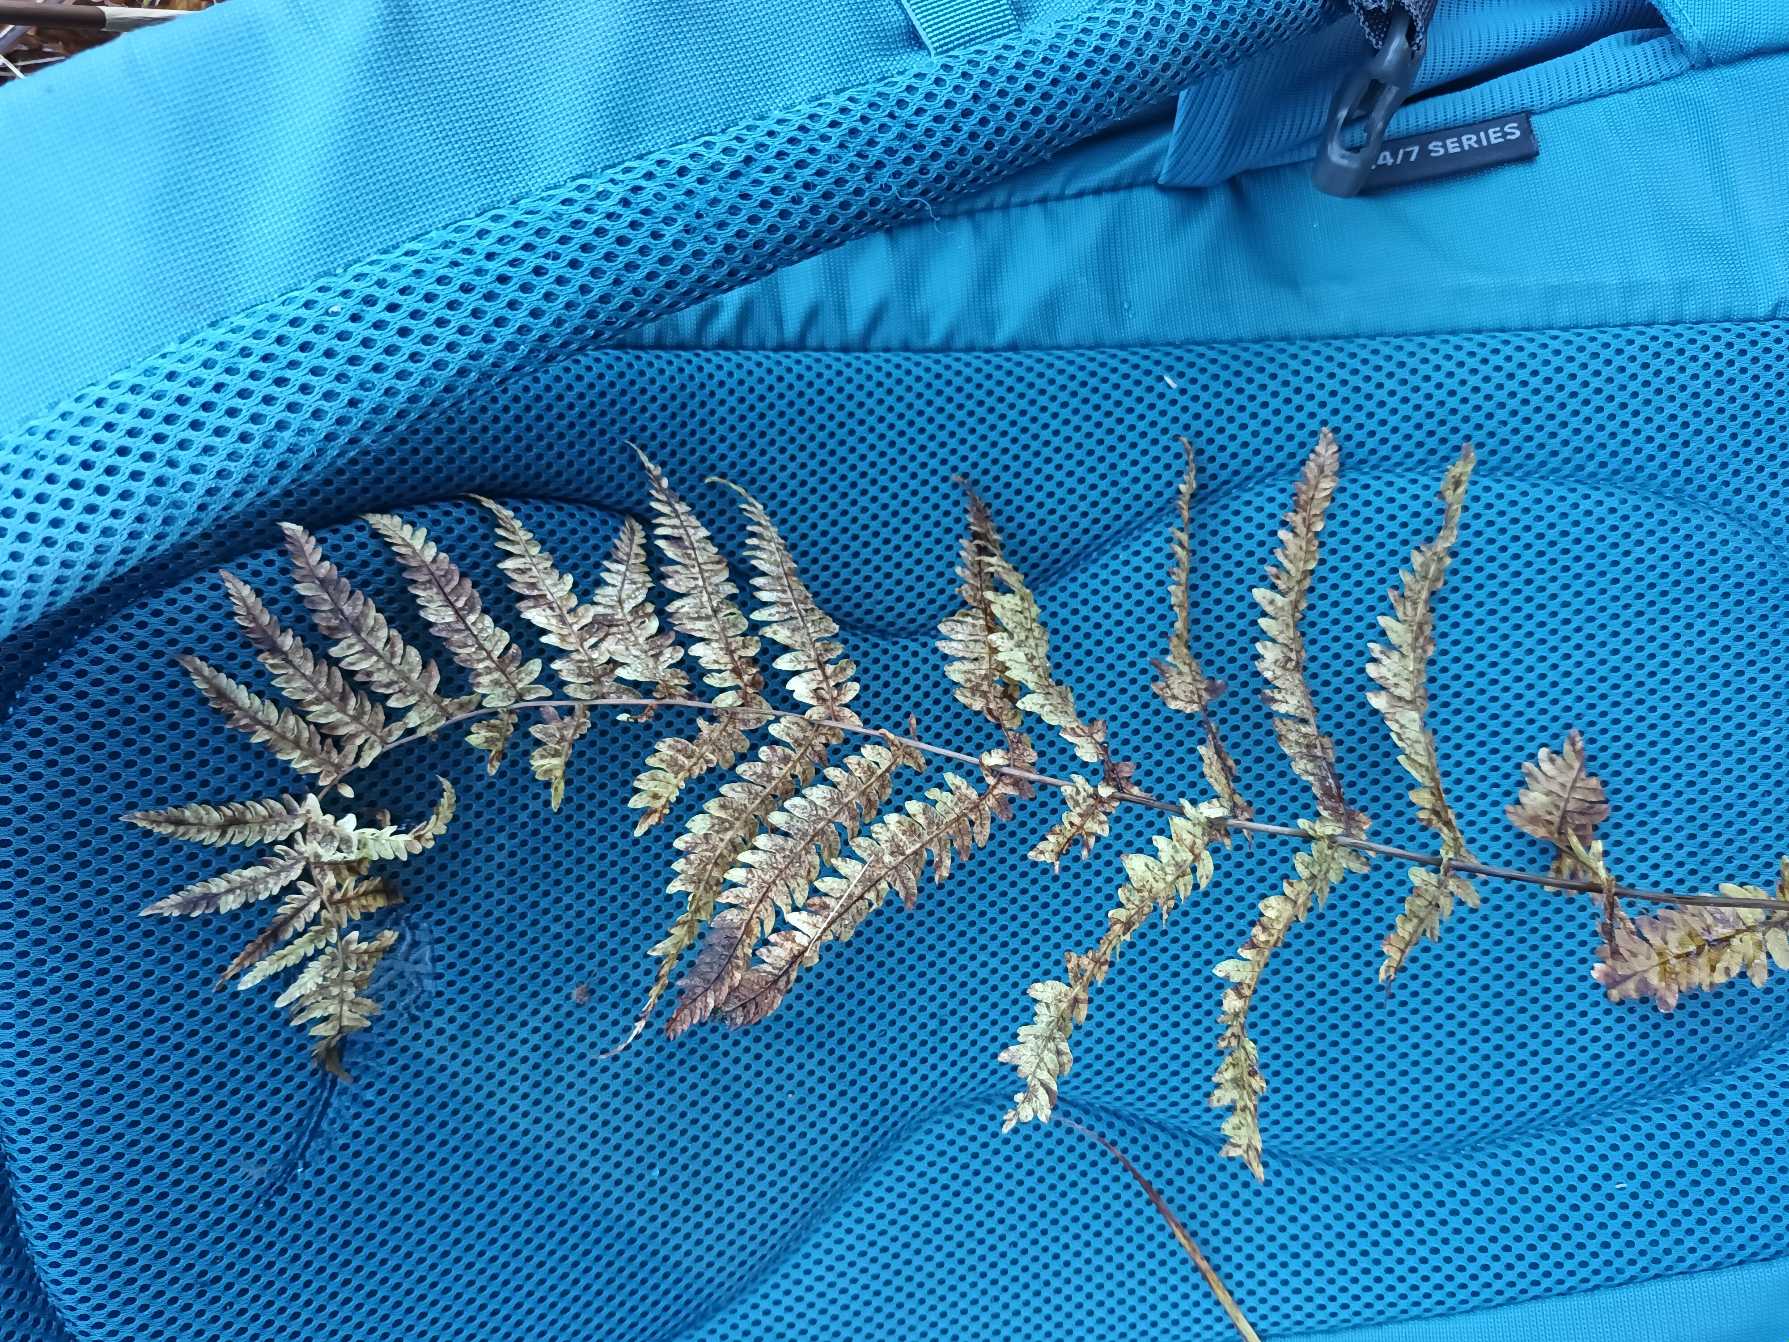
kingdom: Plantae
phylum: Tracheophyta
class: Polypodiopsida
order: Polypodiales
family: Thelypteridaceae
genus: Thelypteris
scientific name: Thelypteris palustris
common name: Kærmangeløv
